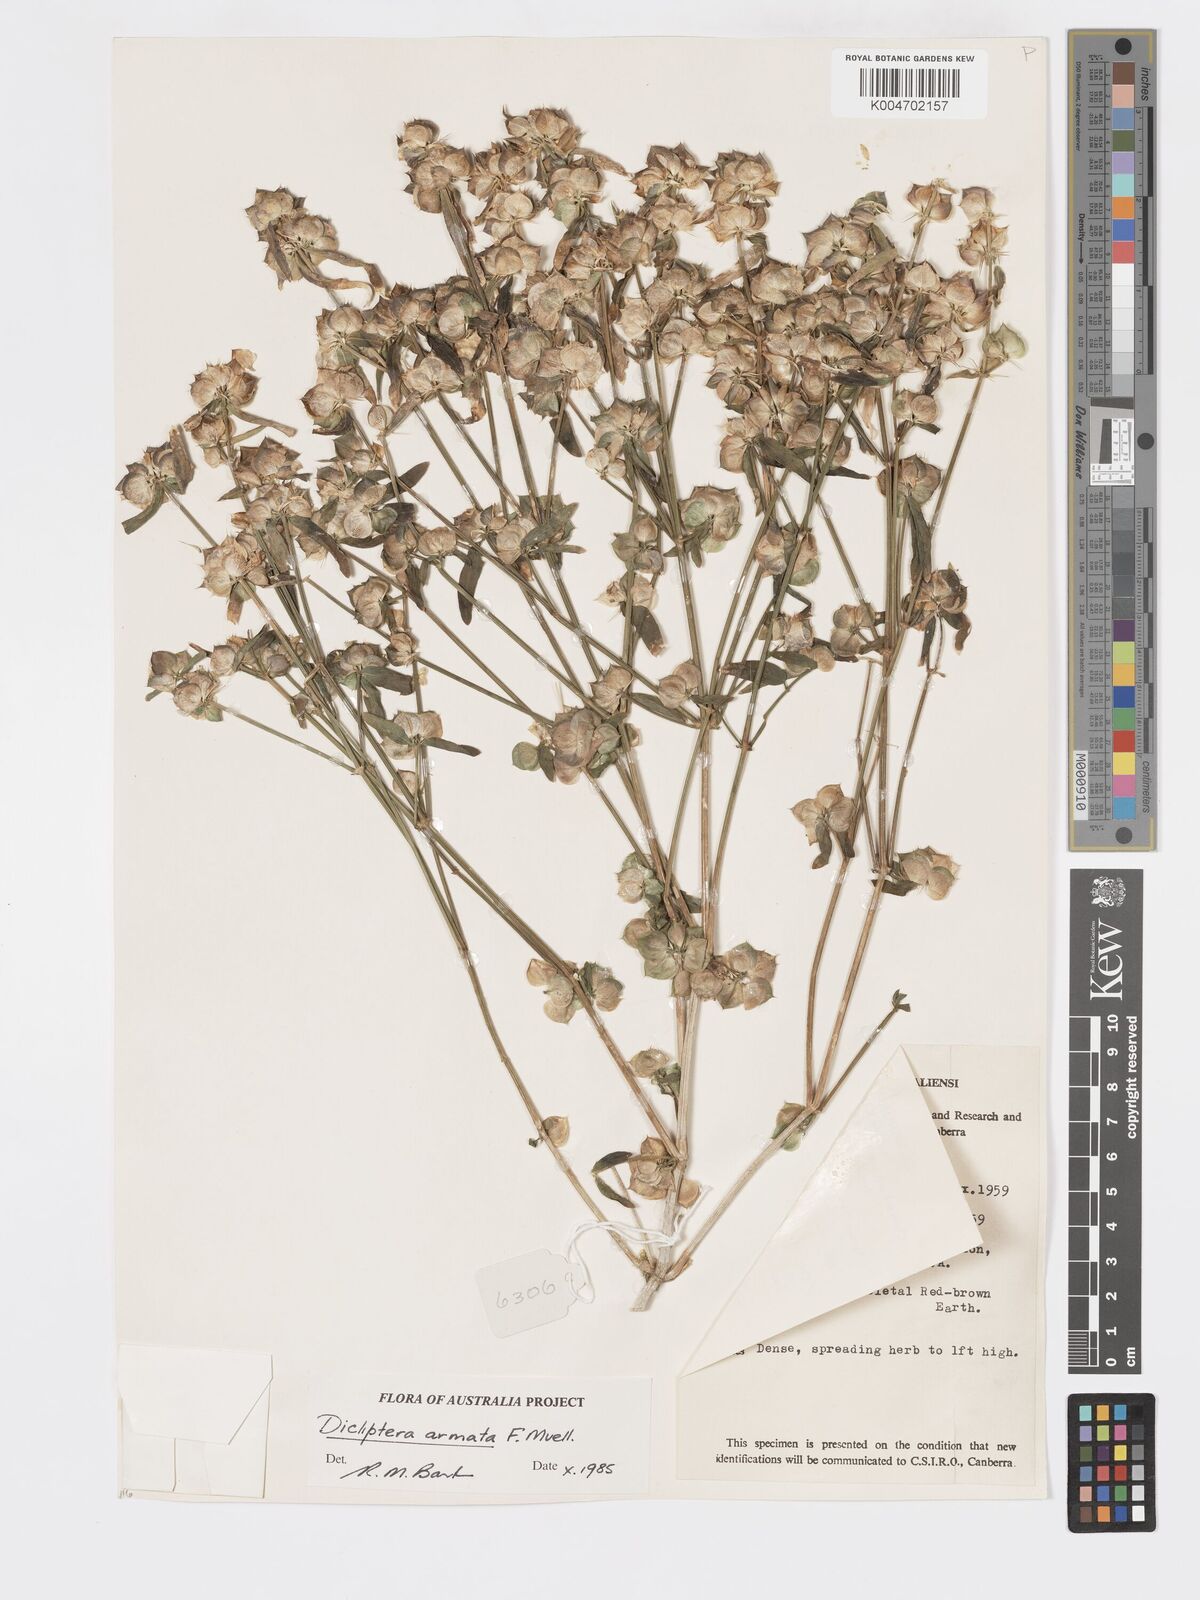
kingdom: Plantae
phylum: Tracheophyta
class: Magnoliopsida
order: Lamiales
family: Acanthaceae
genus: Dicliptera
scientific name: Dicliptera armata
